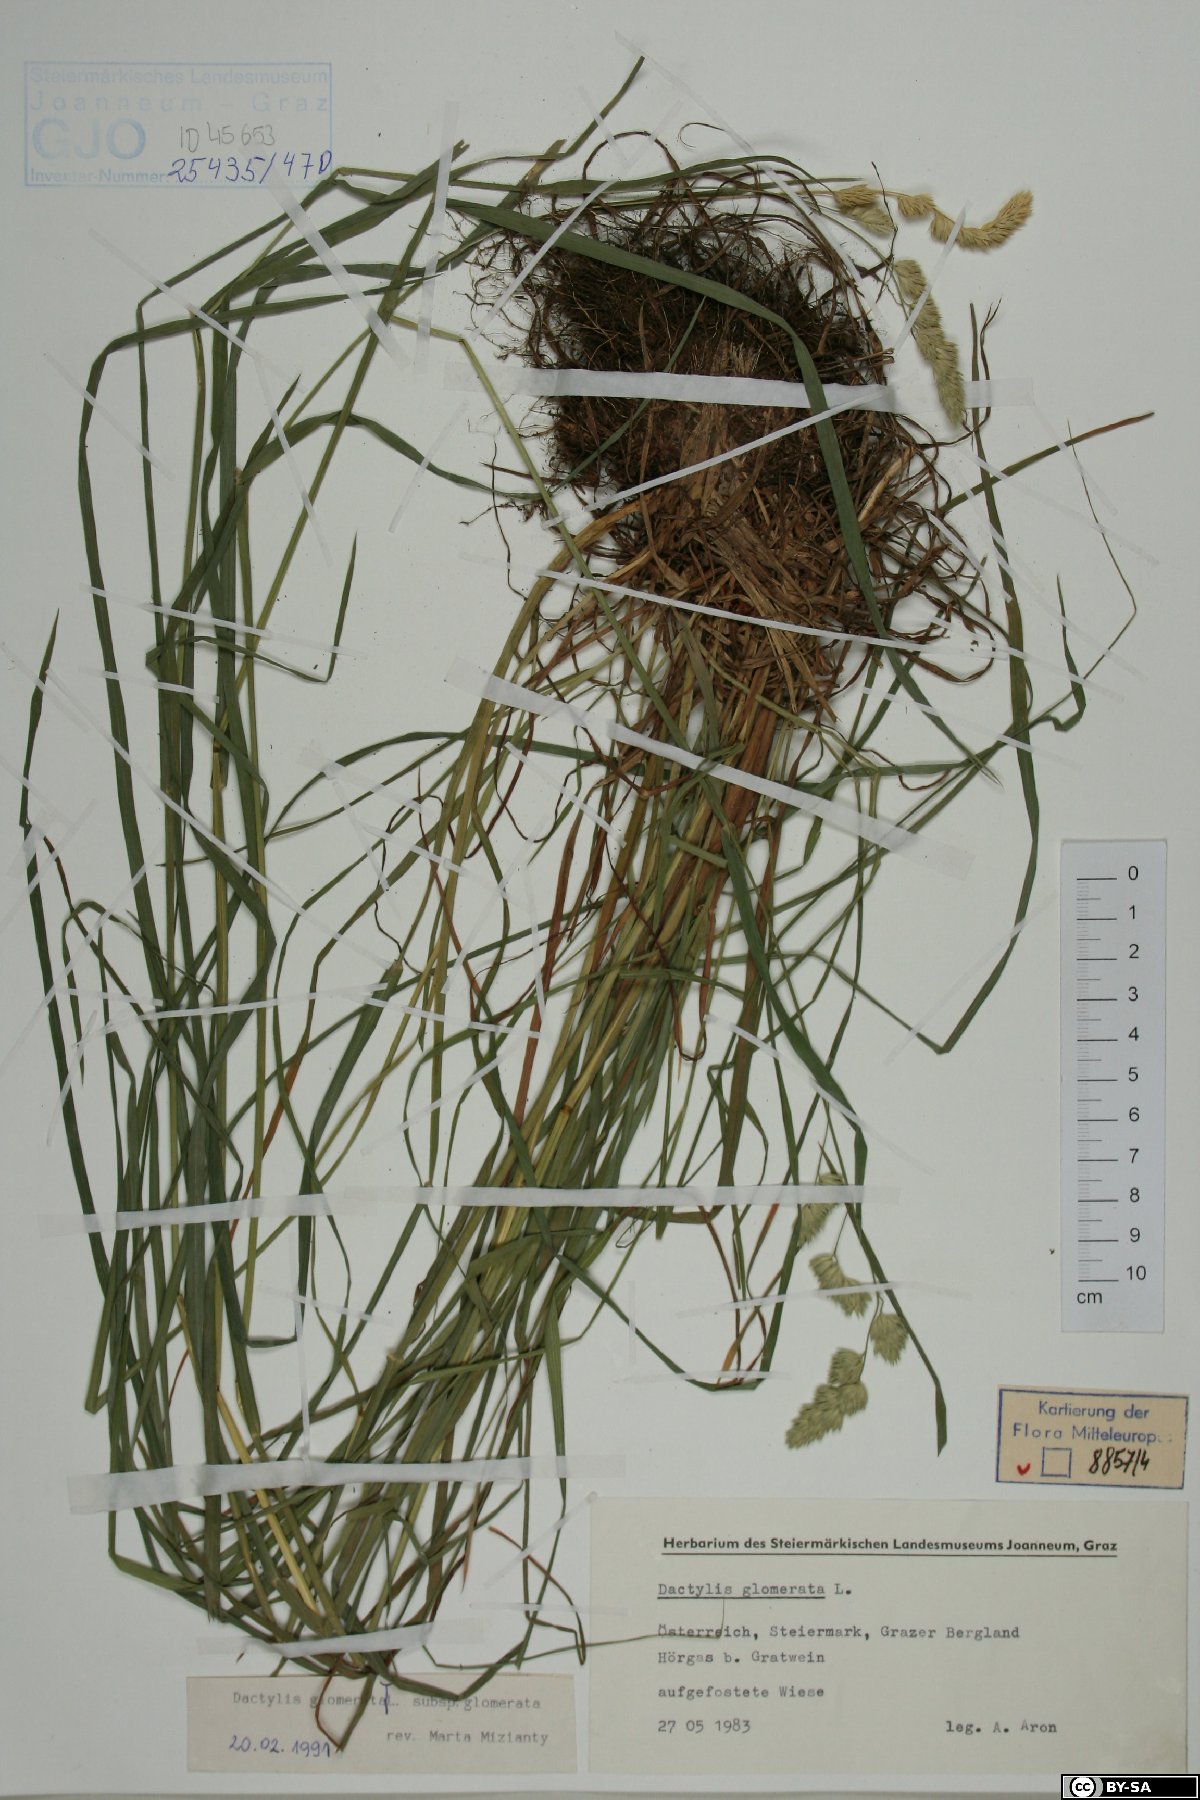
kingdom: Plantae
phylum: Tracheophyta
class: Liliopsida
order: Poales
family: Poaceae
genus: Dactylis
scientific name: Dactylis glomerata
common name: Orchardgrass
